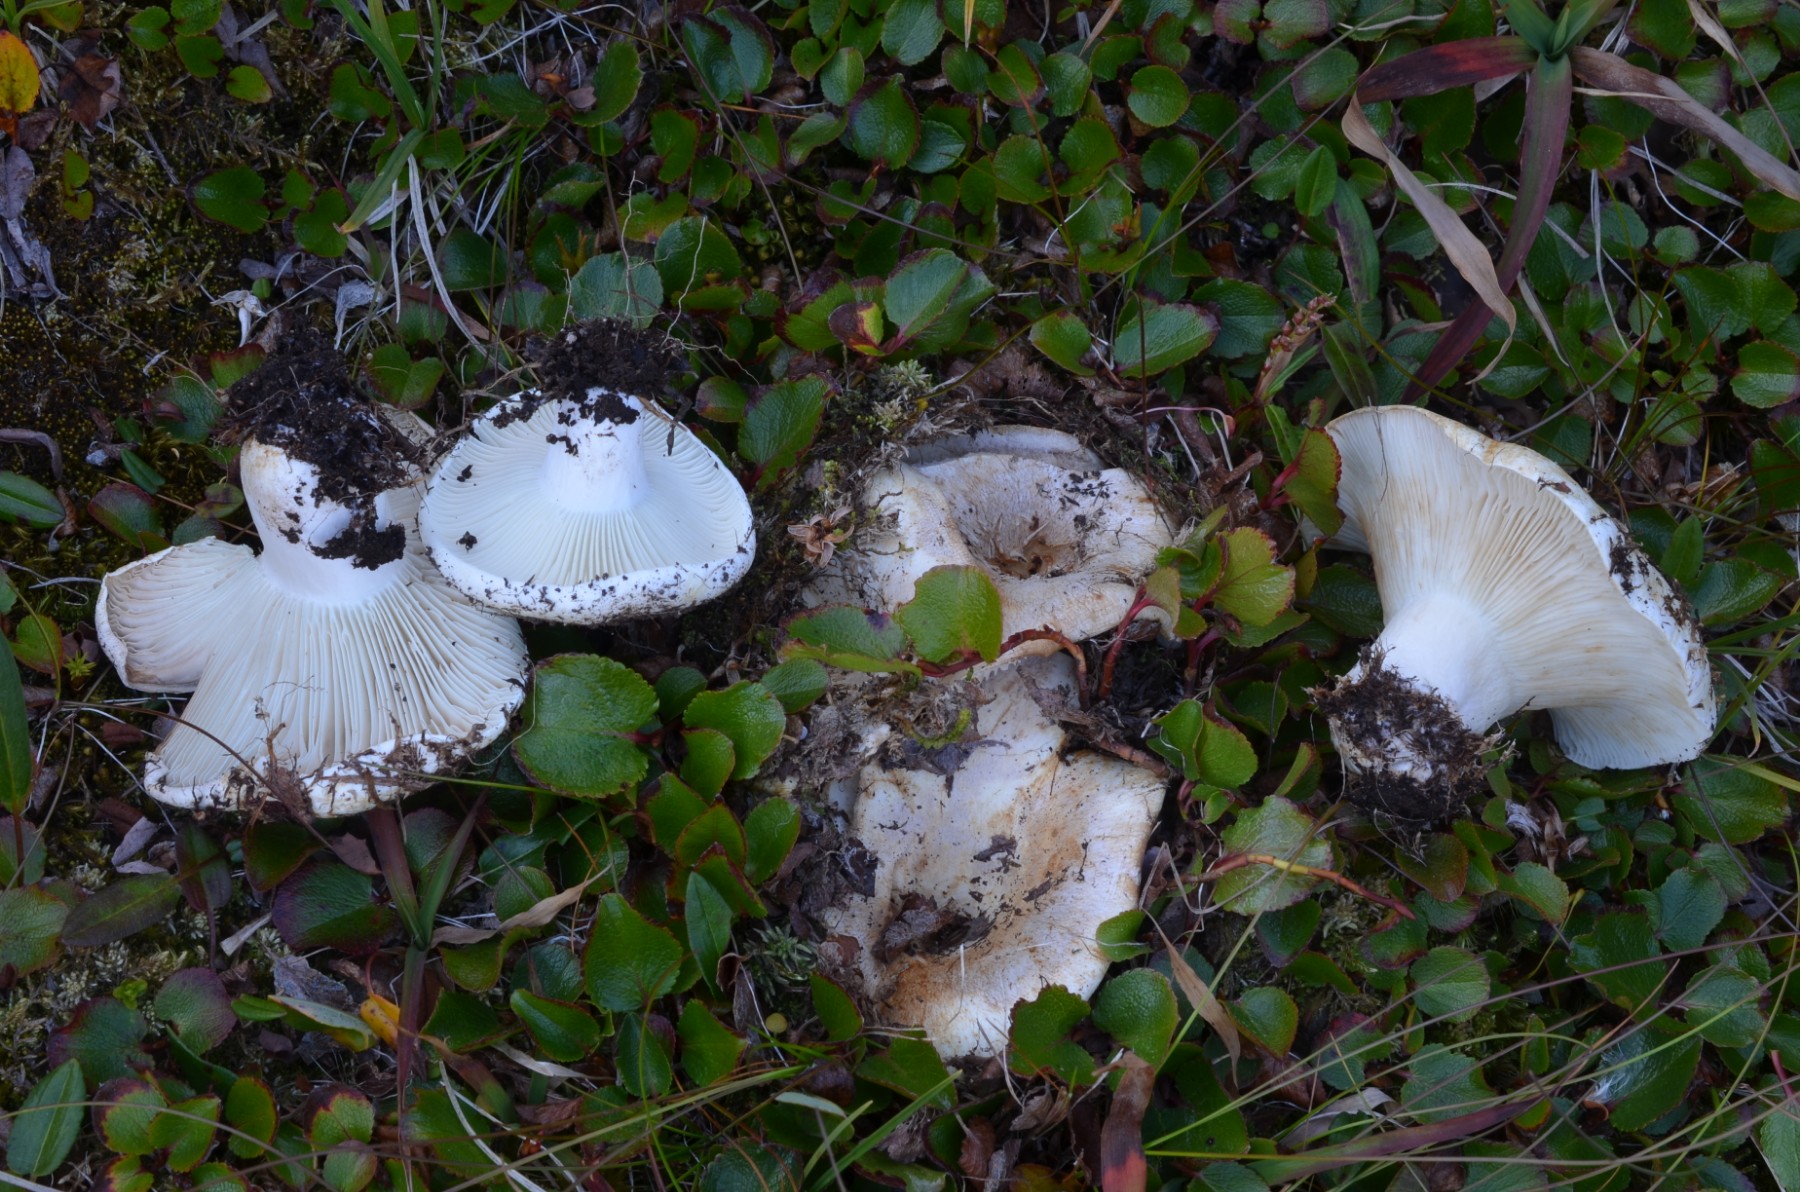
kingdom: Fungi
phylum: Basidiomycota
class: Agaricomycetes
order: Russulales
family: Russulaceae
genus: Russula
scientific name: Russula delica
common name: almindelig tragt-skørhat
